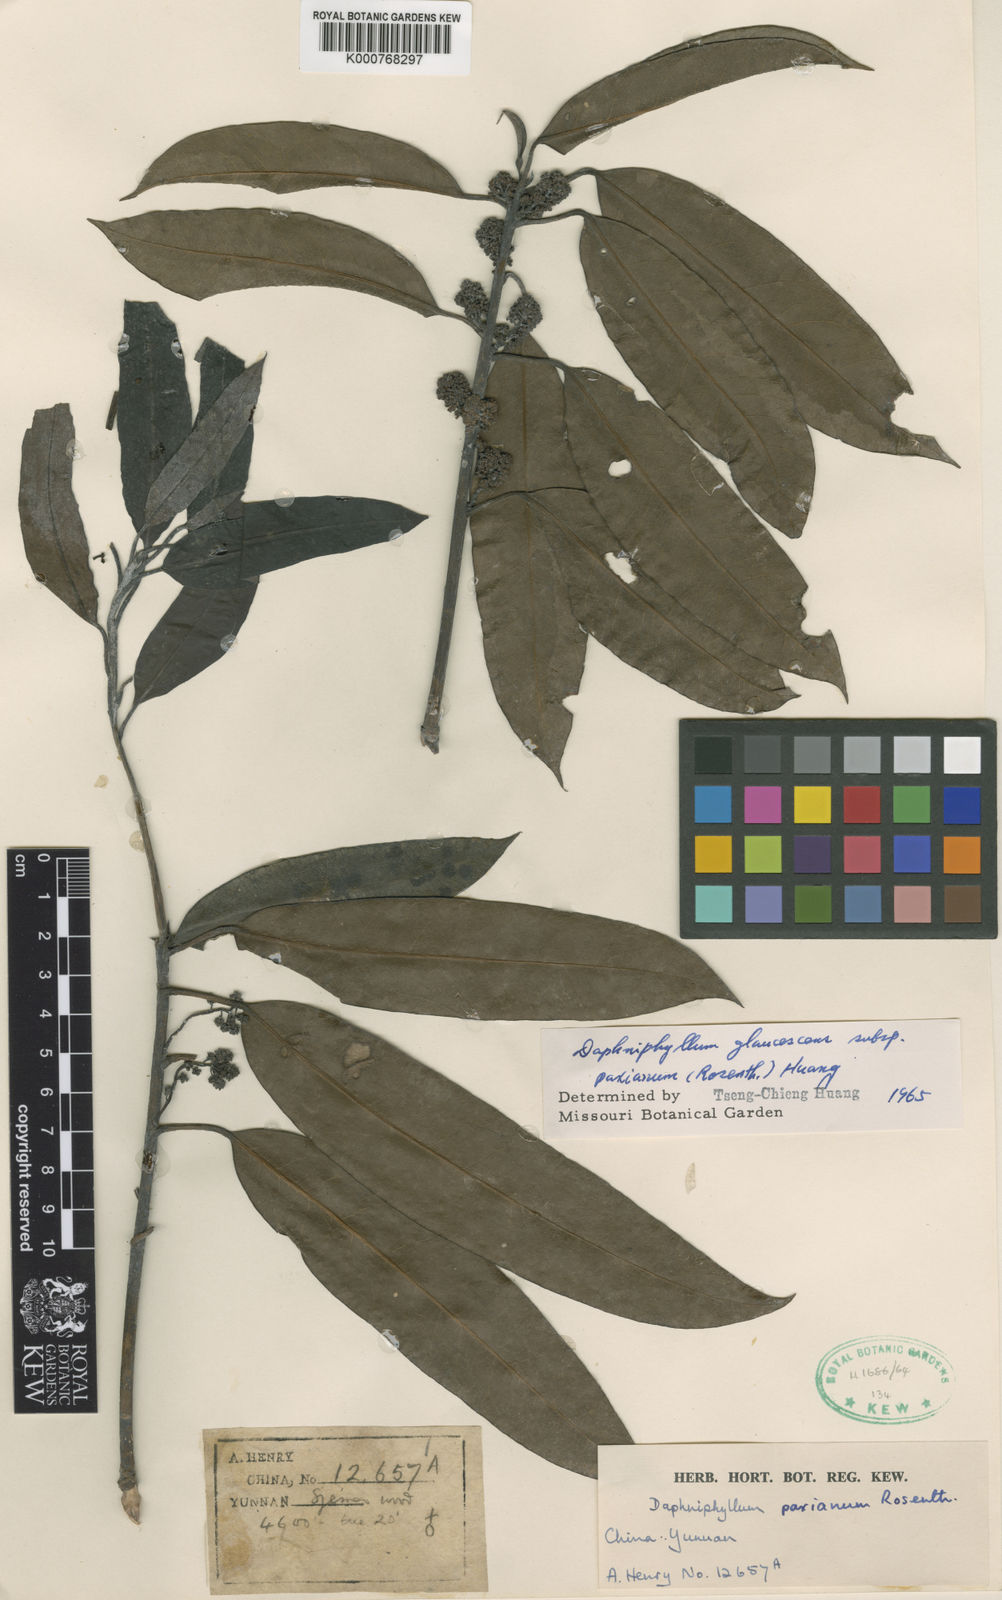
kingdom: Plantae
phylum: Tracheophyta
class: Magnoliopsida
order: Saxifragales
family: Daphniphyllaceae
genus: Daphniphyllum
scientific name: Daphniphyllum paxianum
